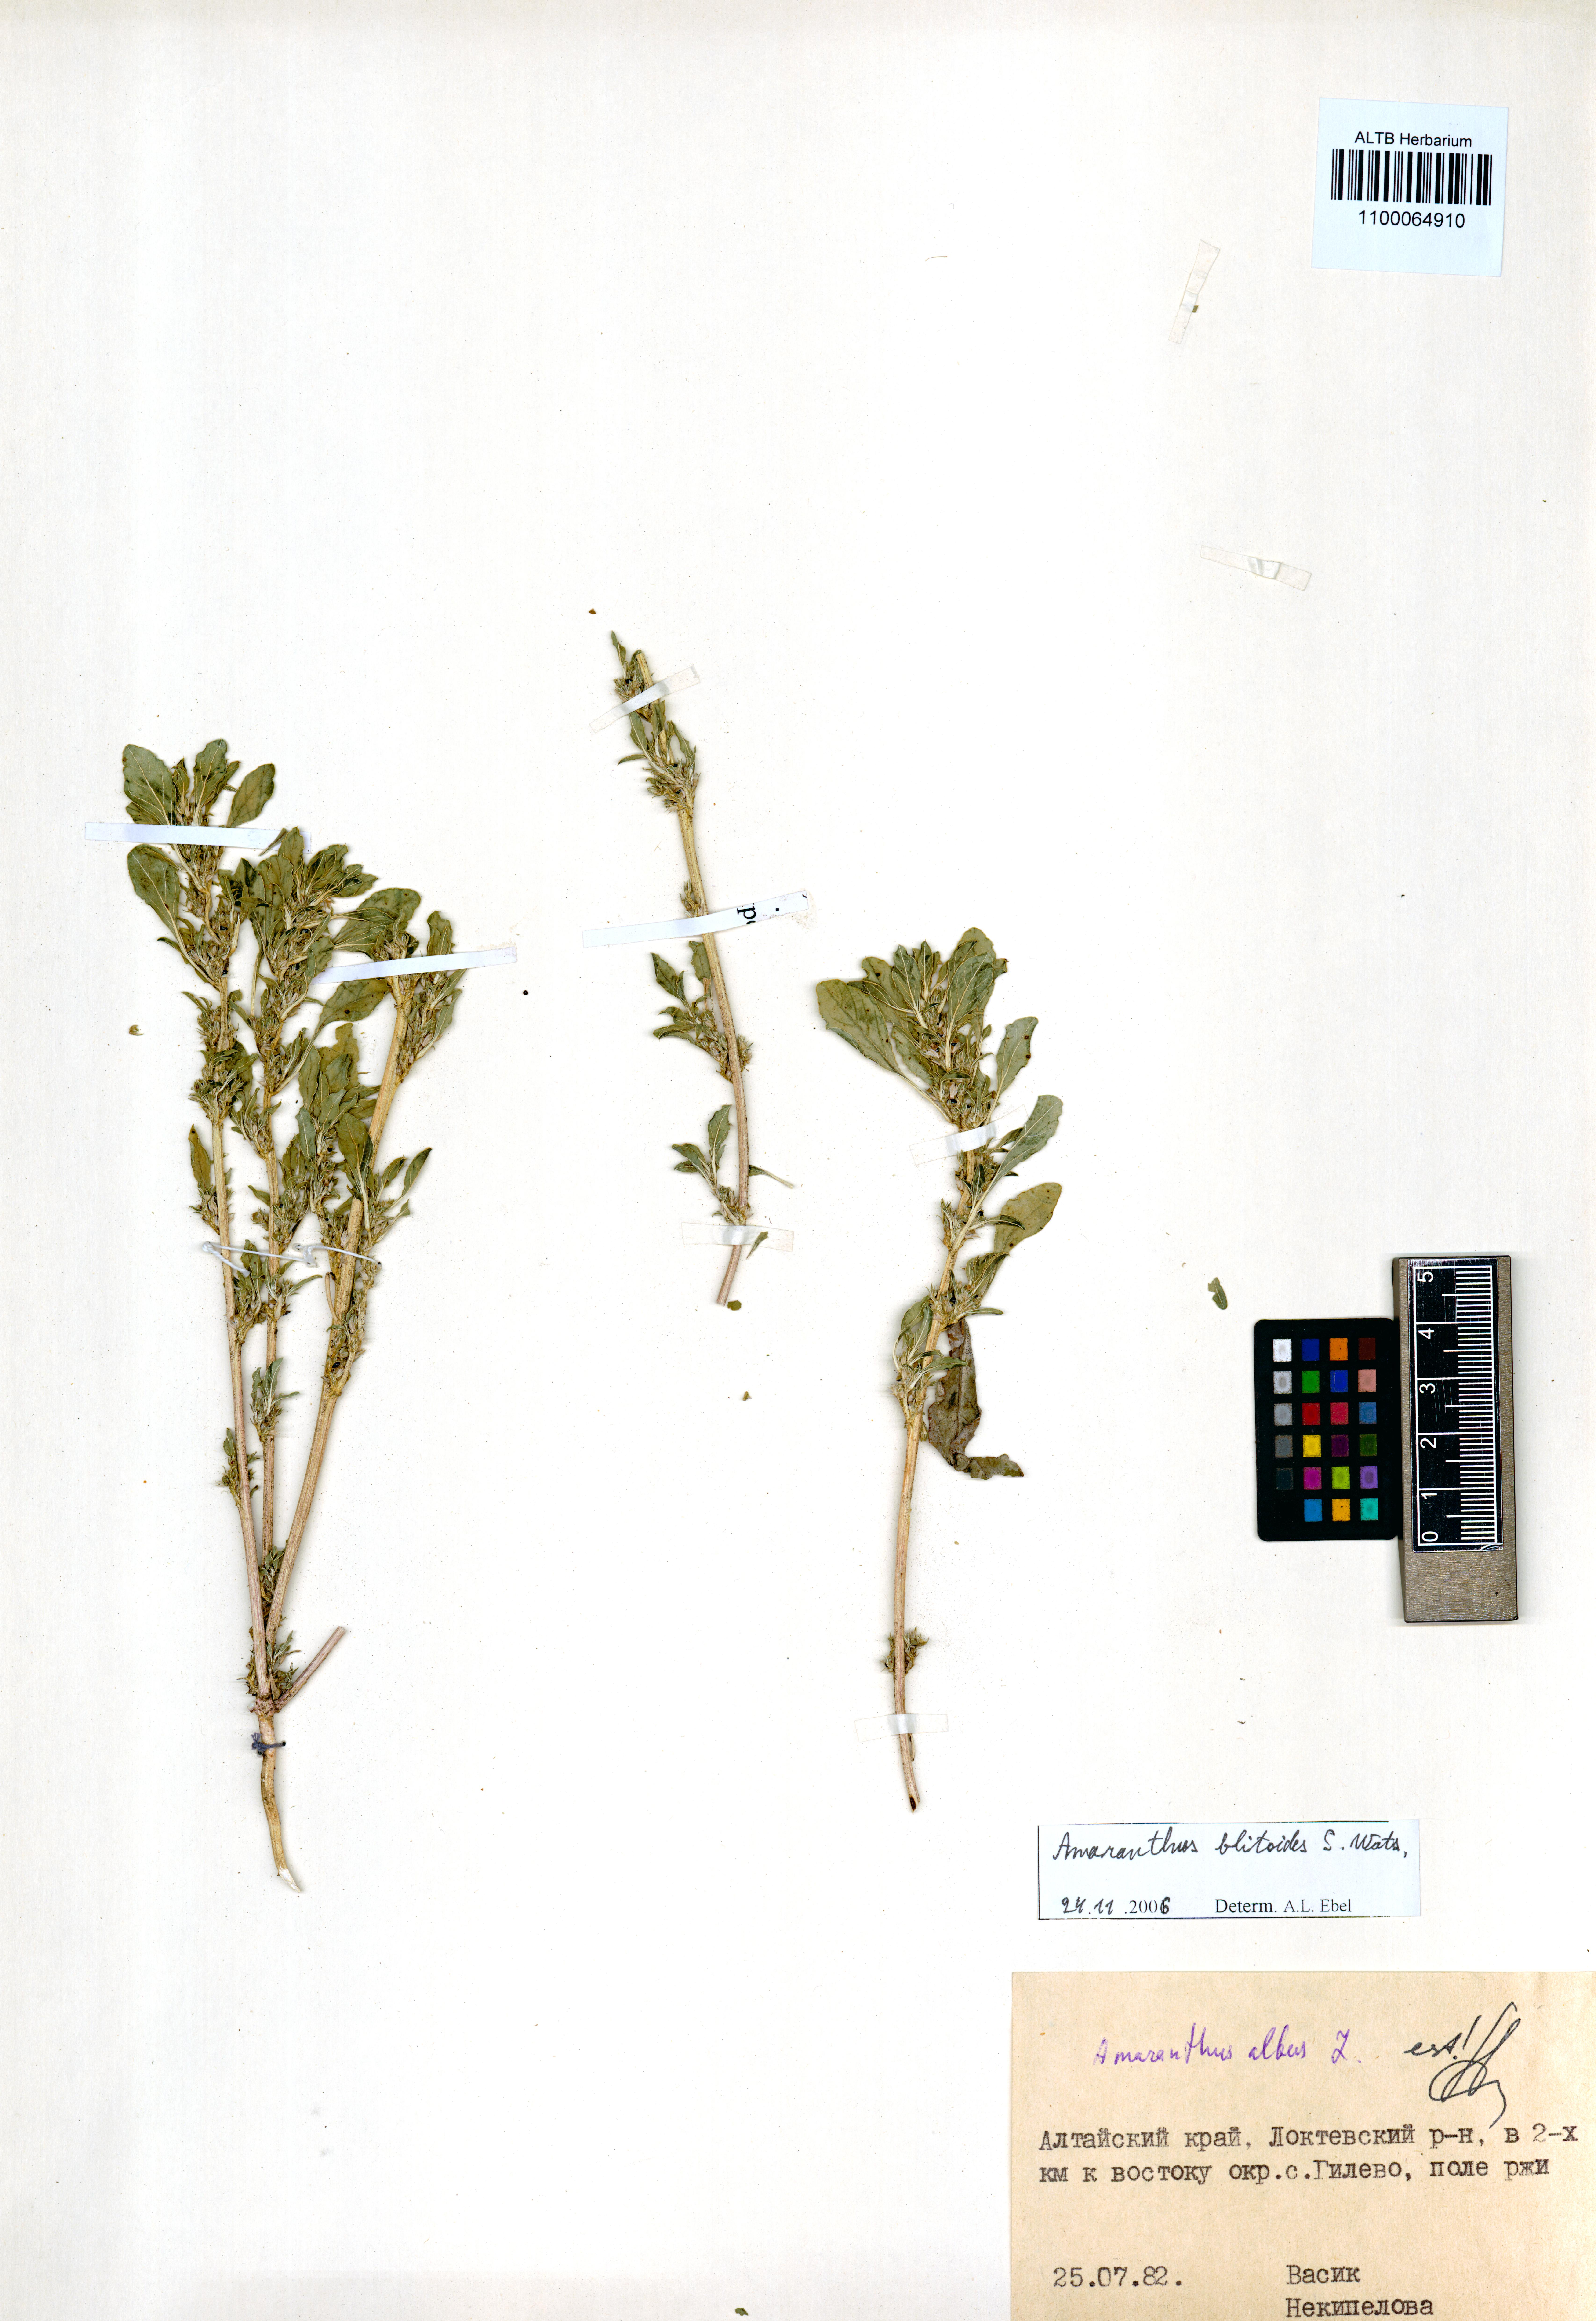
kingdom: Plantae
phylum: Tracheophyta
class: Magnoliopsida
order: Caryophyllales
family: Amaranthaceae
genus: Amaranthus
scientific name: Amaranthus blitoides
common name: Prostrate pigweed
